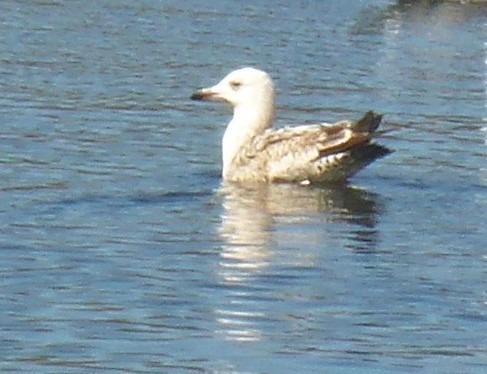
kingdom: Animalia
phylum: Chordata
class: Aves
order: Charadriiformes
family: Laridae
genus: Larus
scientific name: Larus argentatus
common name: Sølvmåge
